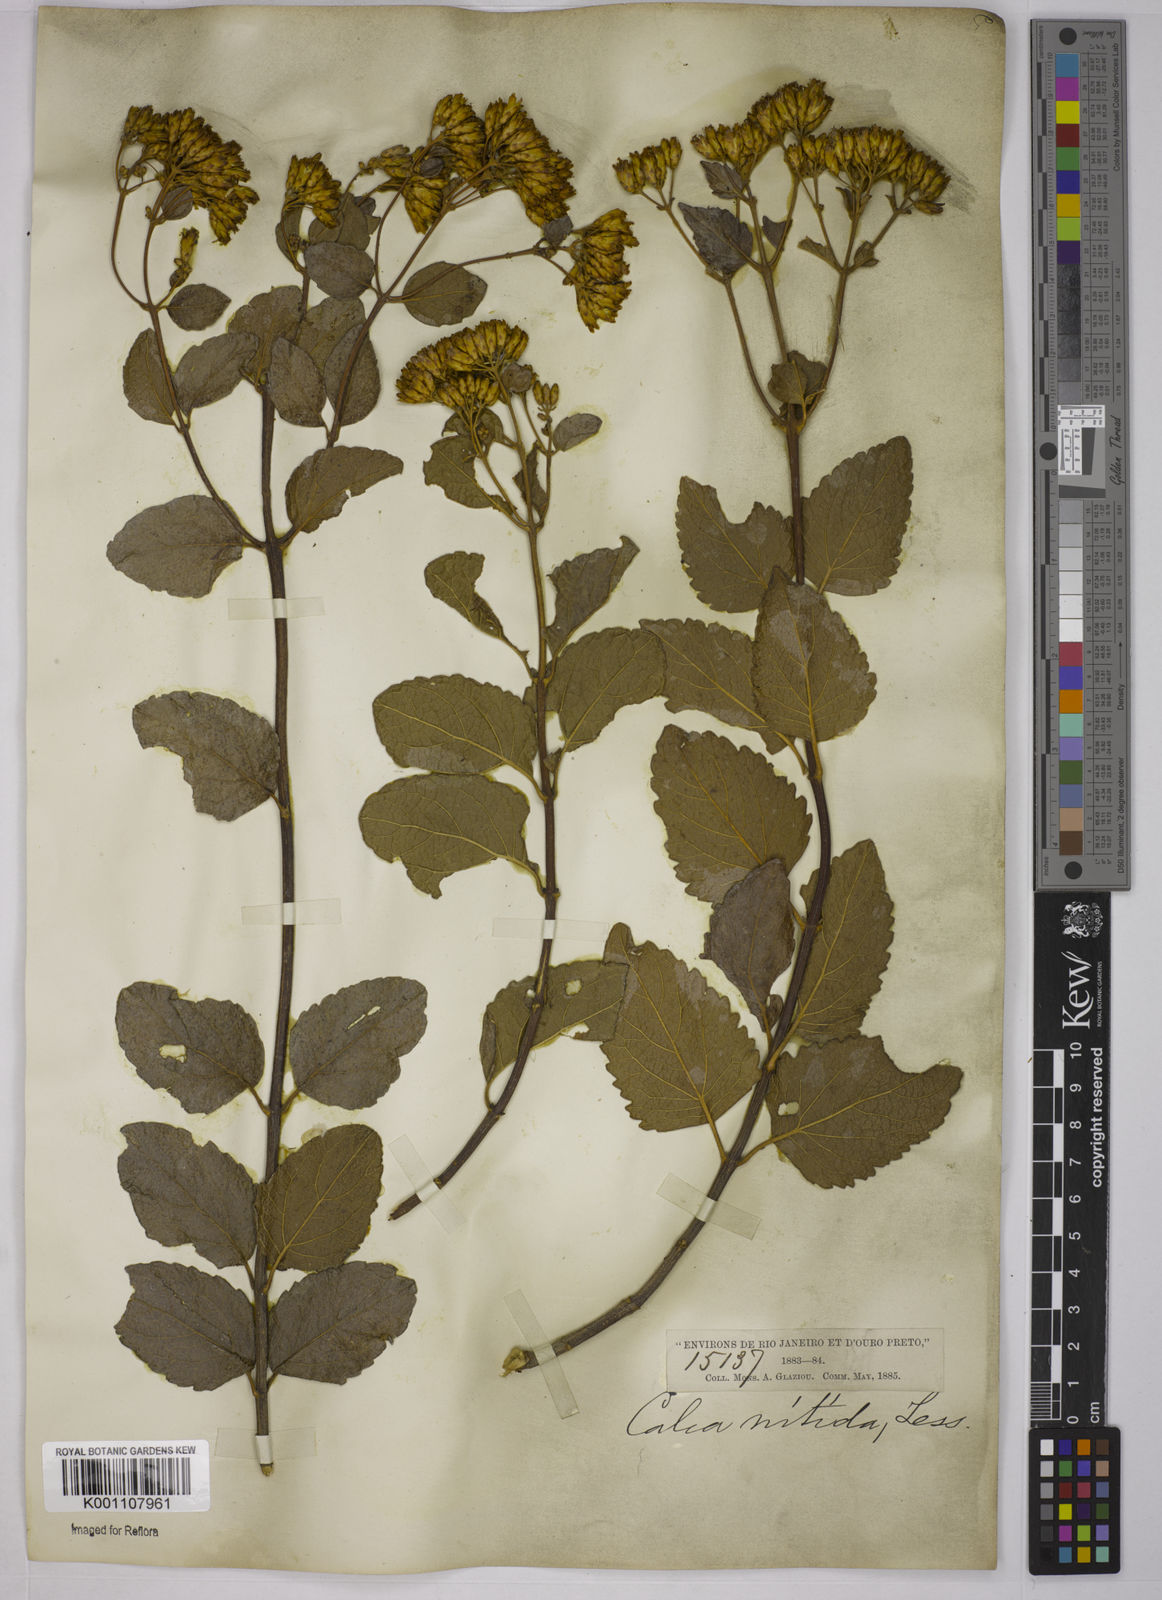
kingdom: Plantae
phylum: Tracheophyta
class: Magnoliopsida
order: Asterales
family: Asteraceae
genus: Calea
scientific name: Calea nitida
